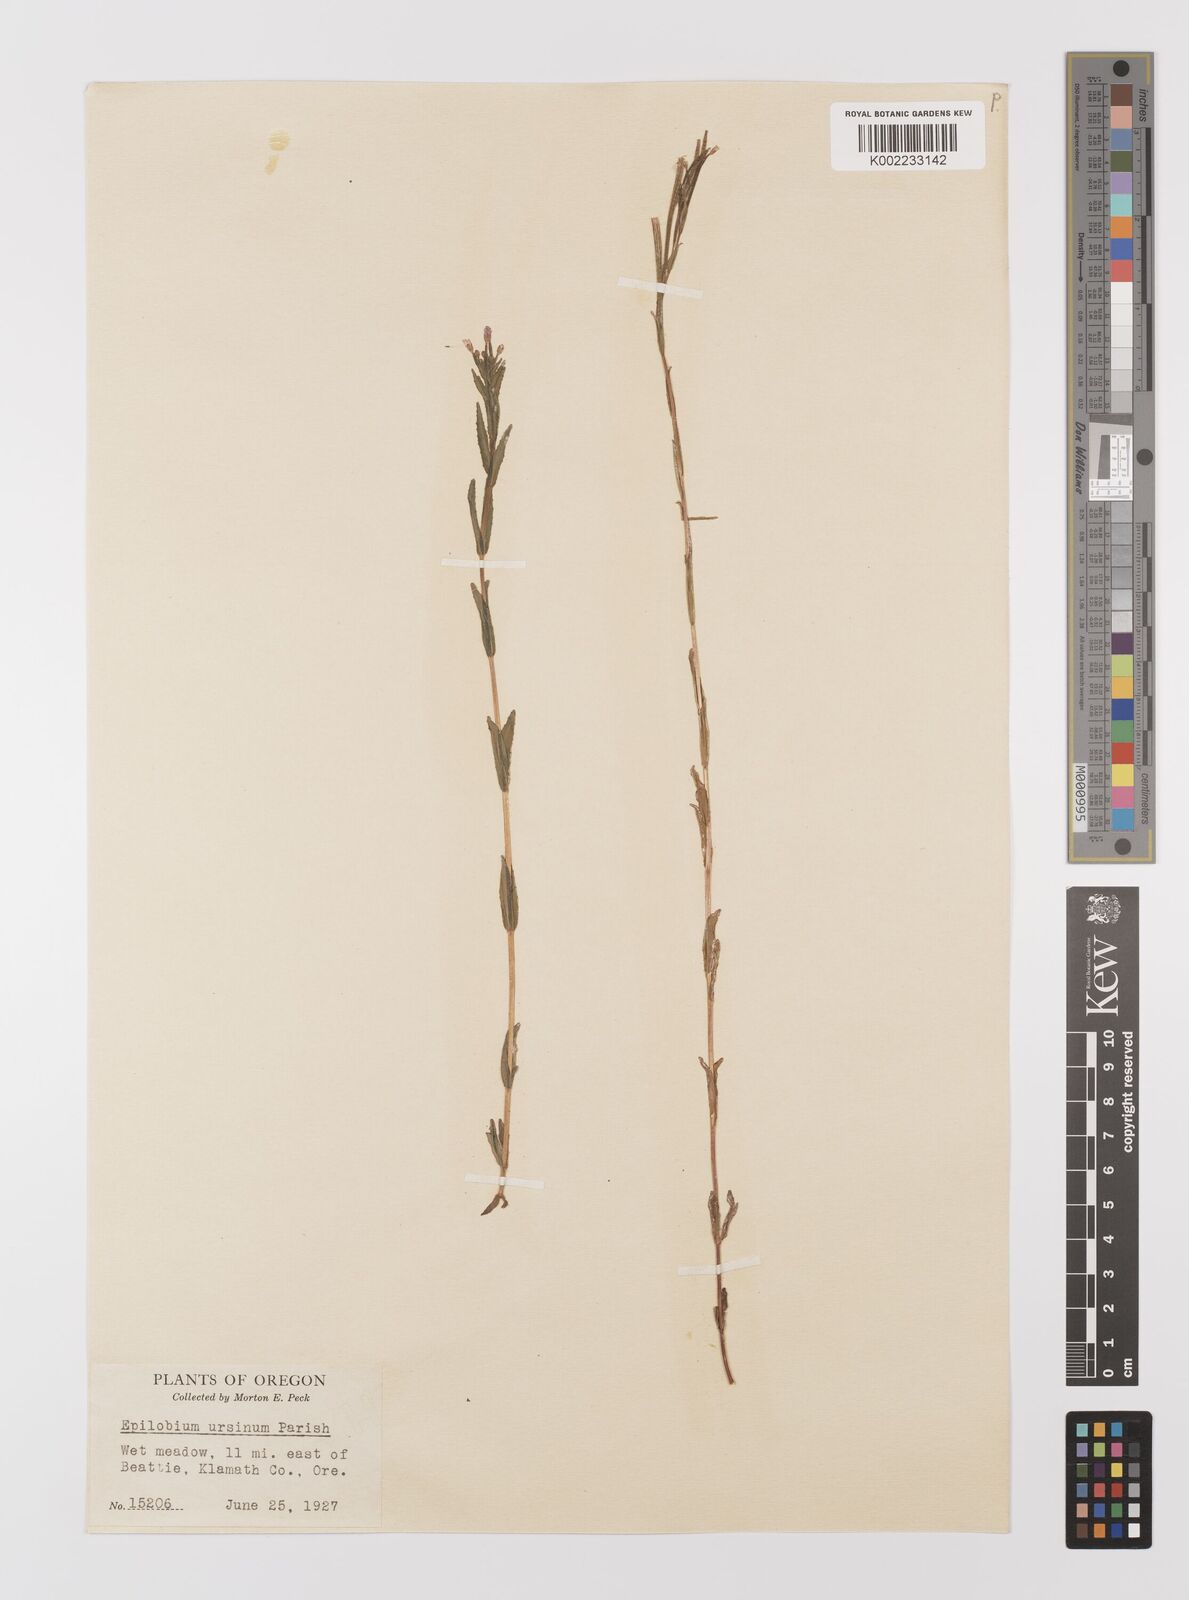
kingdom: Plantae
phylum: Tracheophyta
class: Magnoliopsida
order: Myrtales
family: Onagraceae
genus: Epilobium
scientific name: Epilobium
